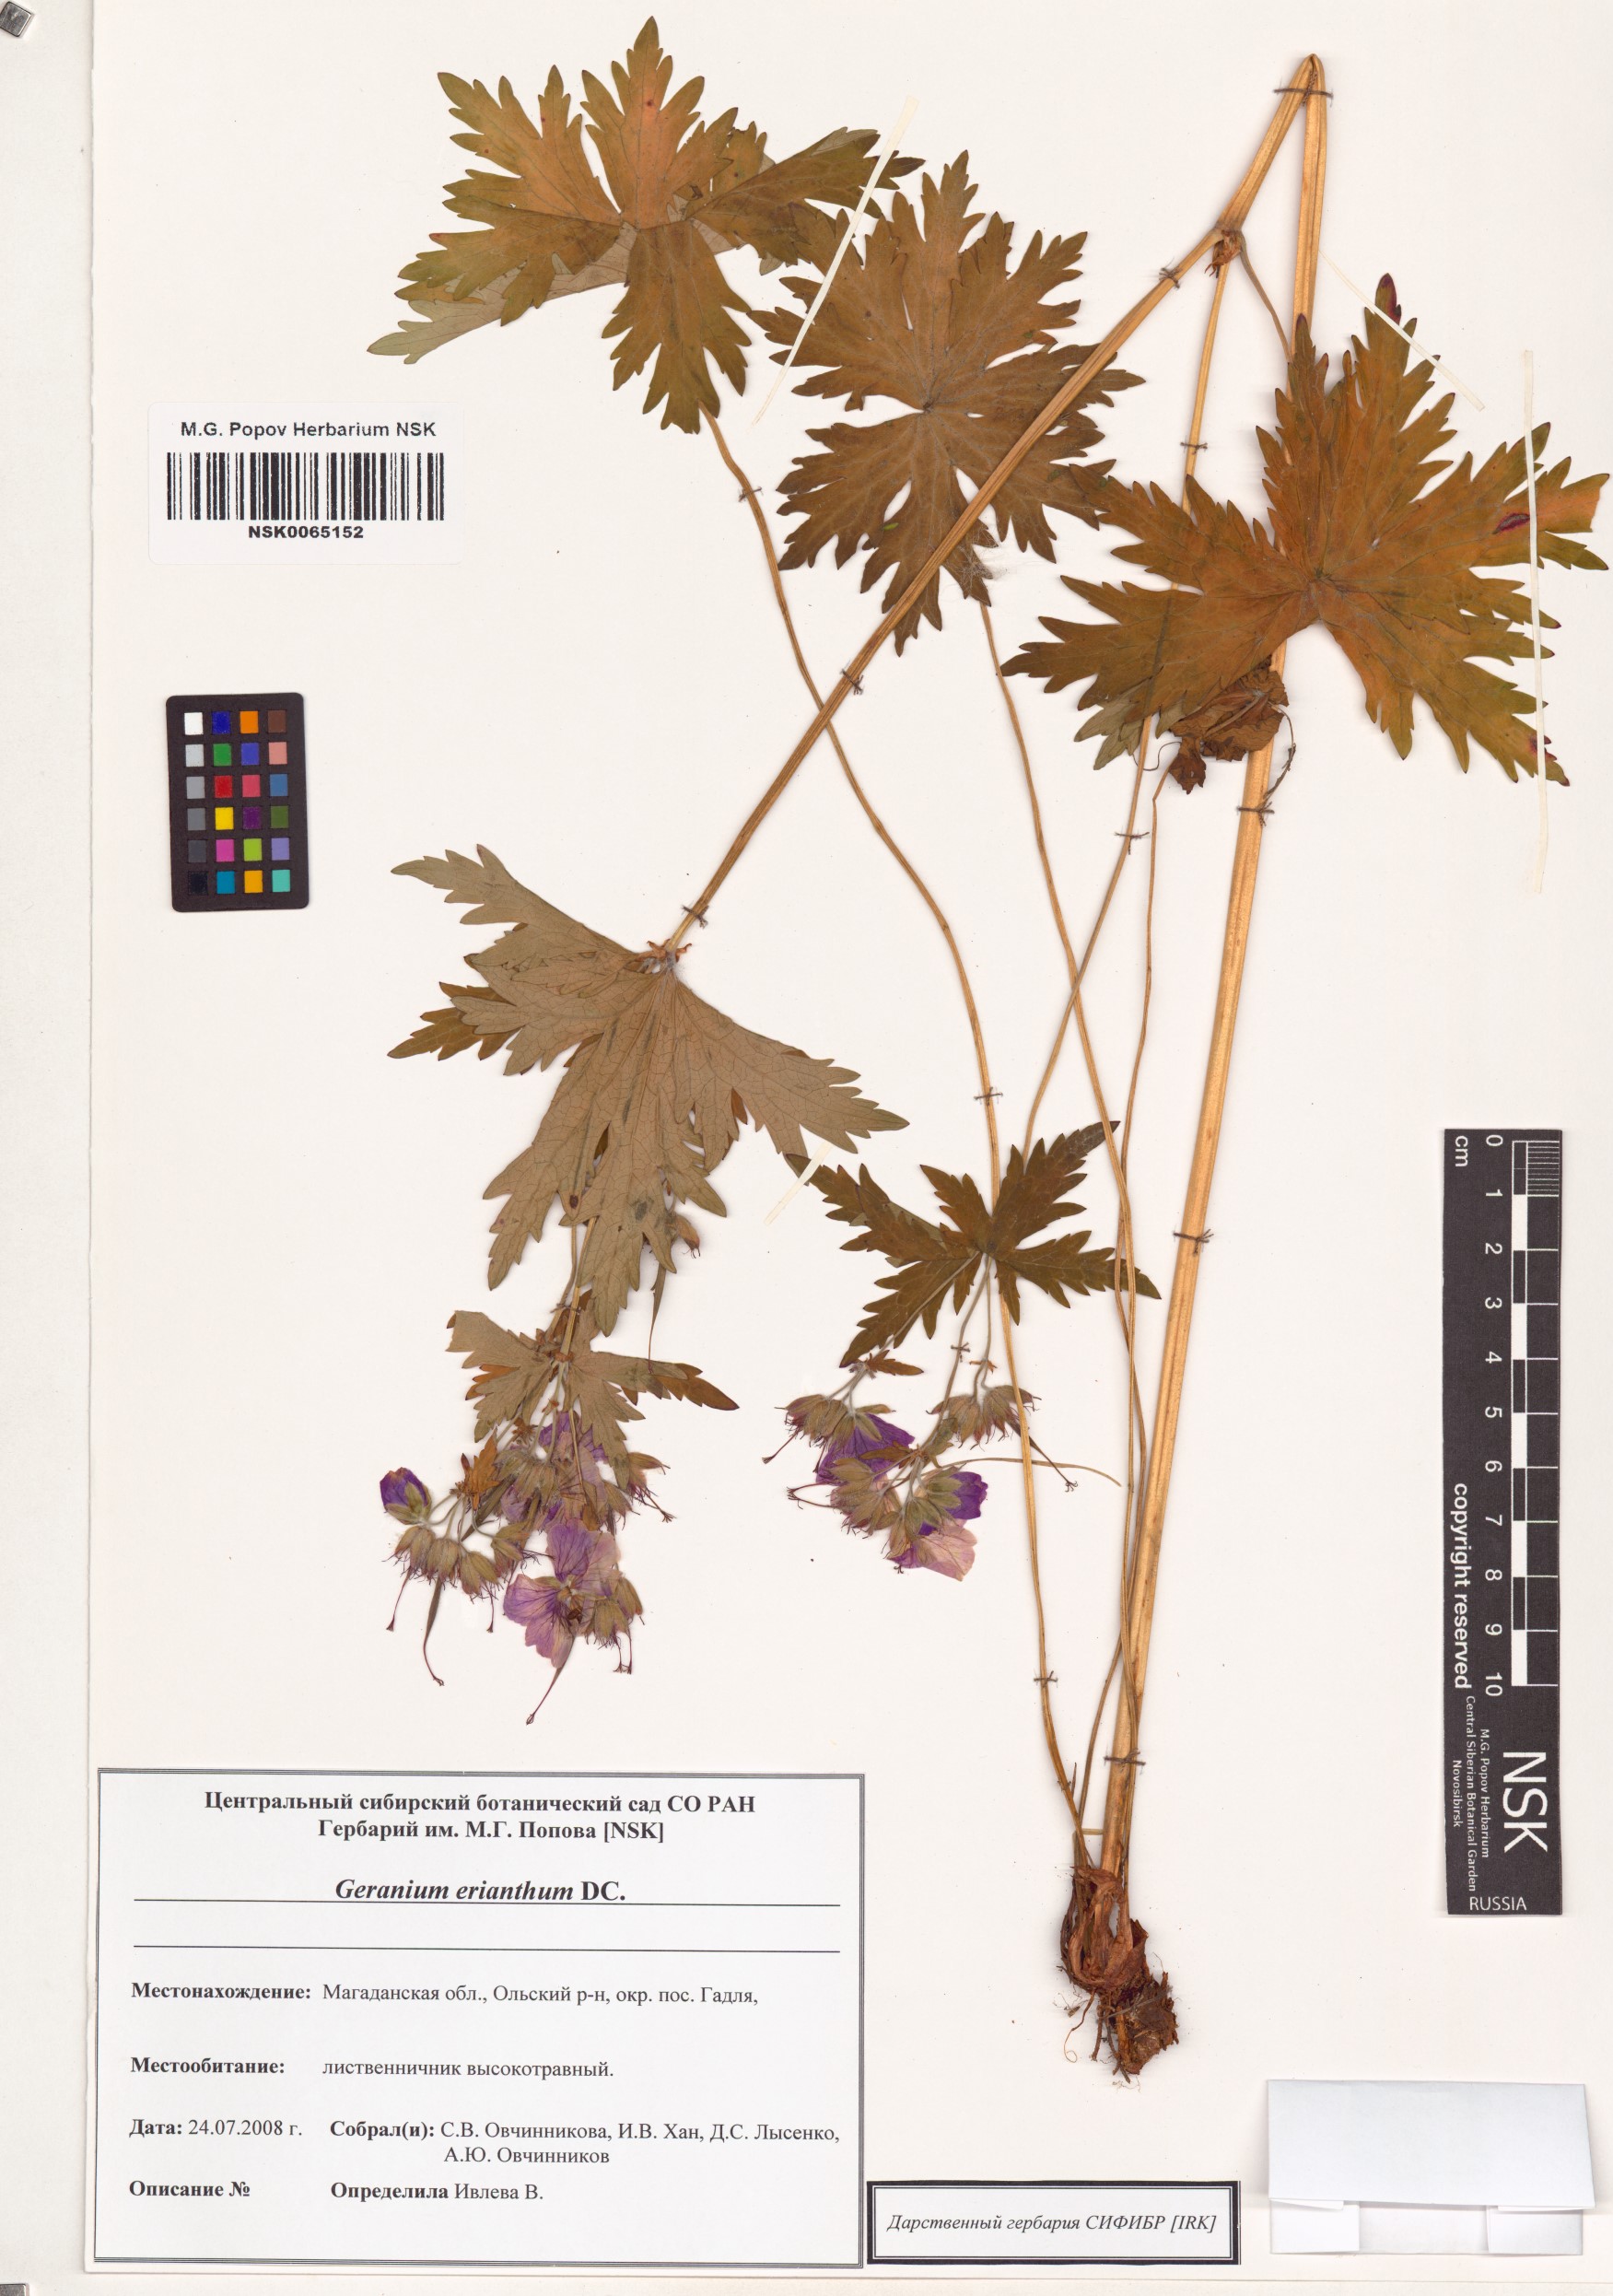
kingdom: Plantae
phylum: Tracheophyta
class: Magnoliopsida
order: Geraniales
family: Geraniaceae
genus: Geranium
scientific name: Geranium erianthum
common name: Northern crane's-bill
